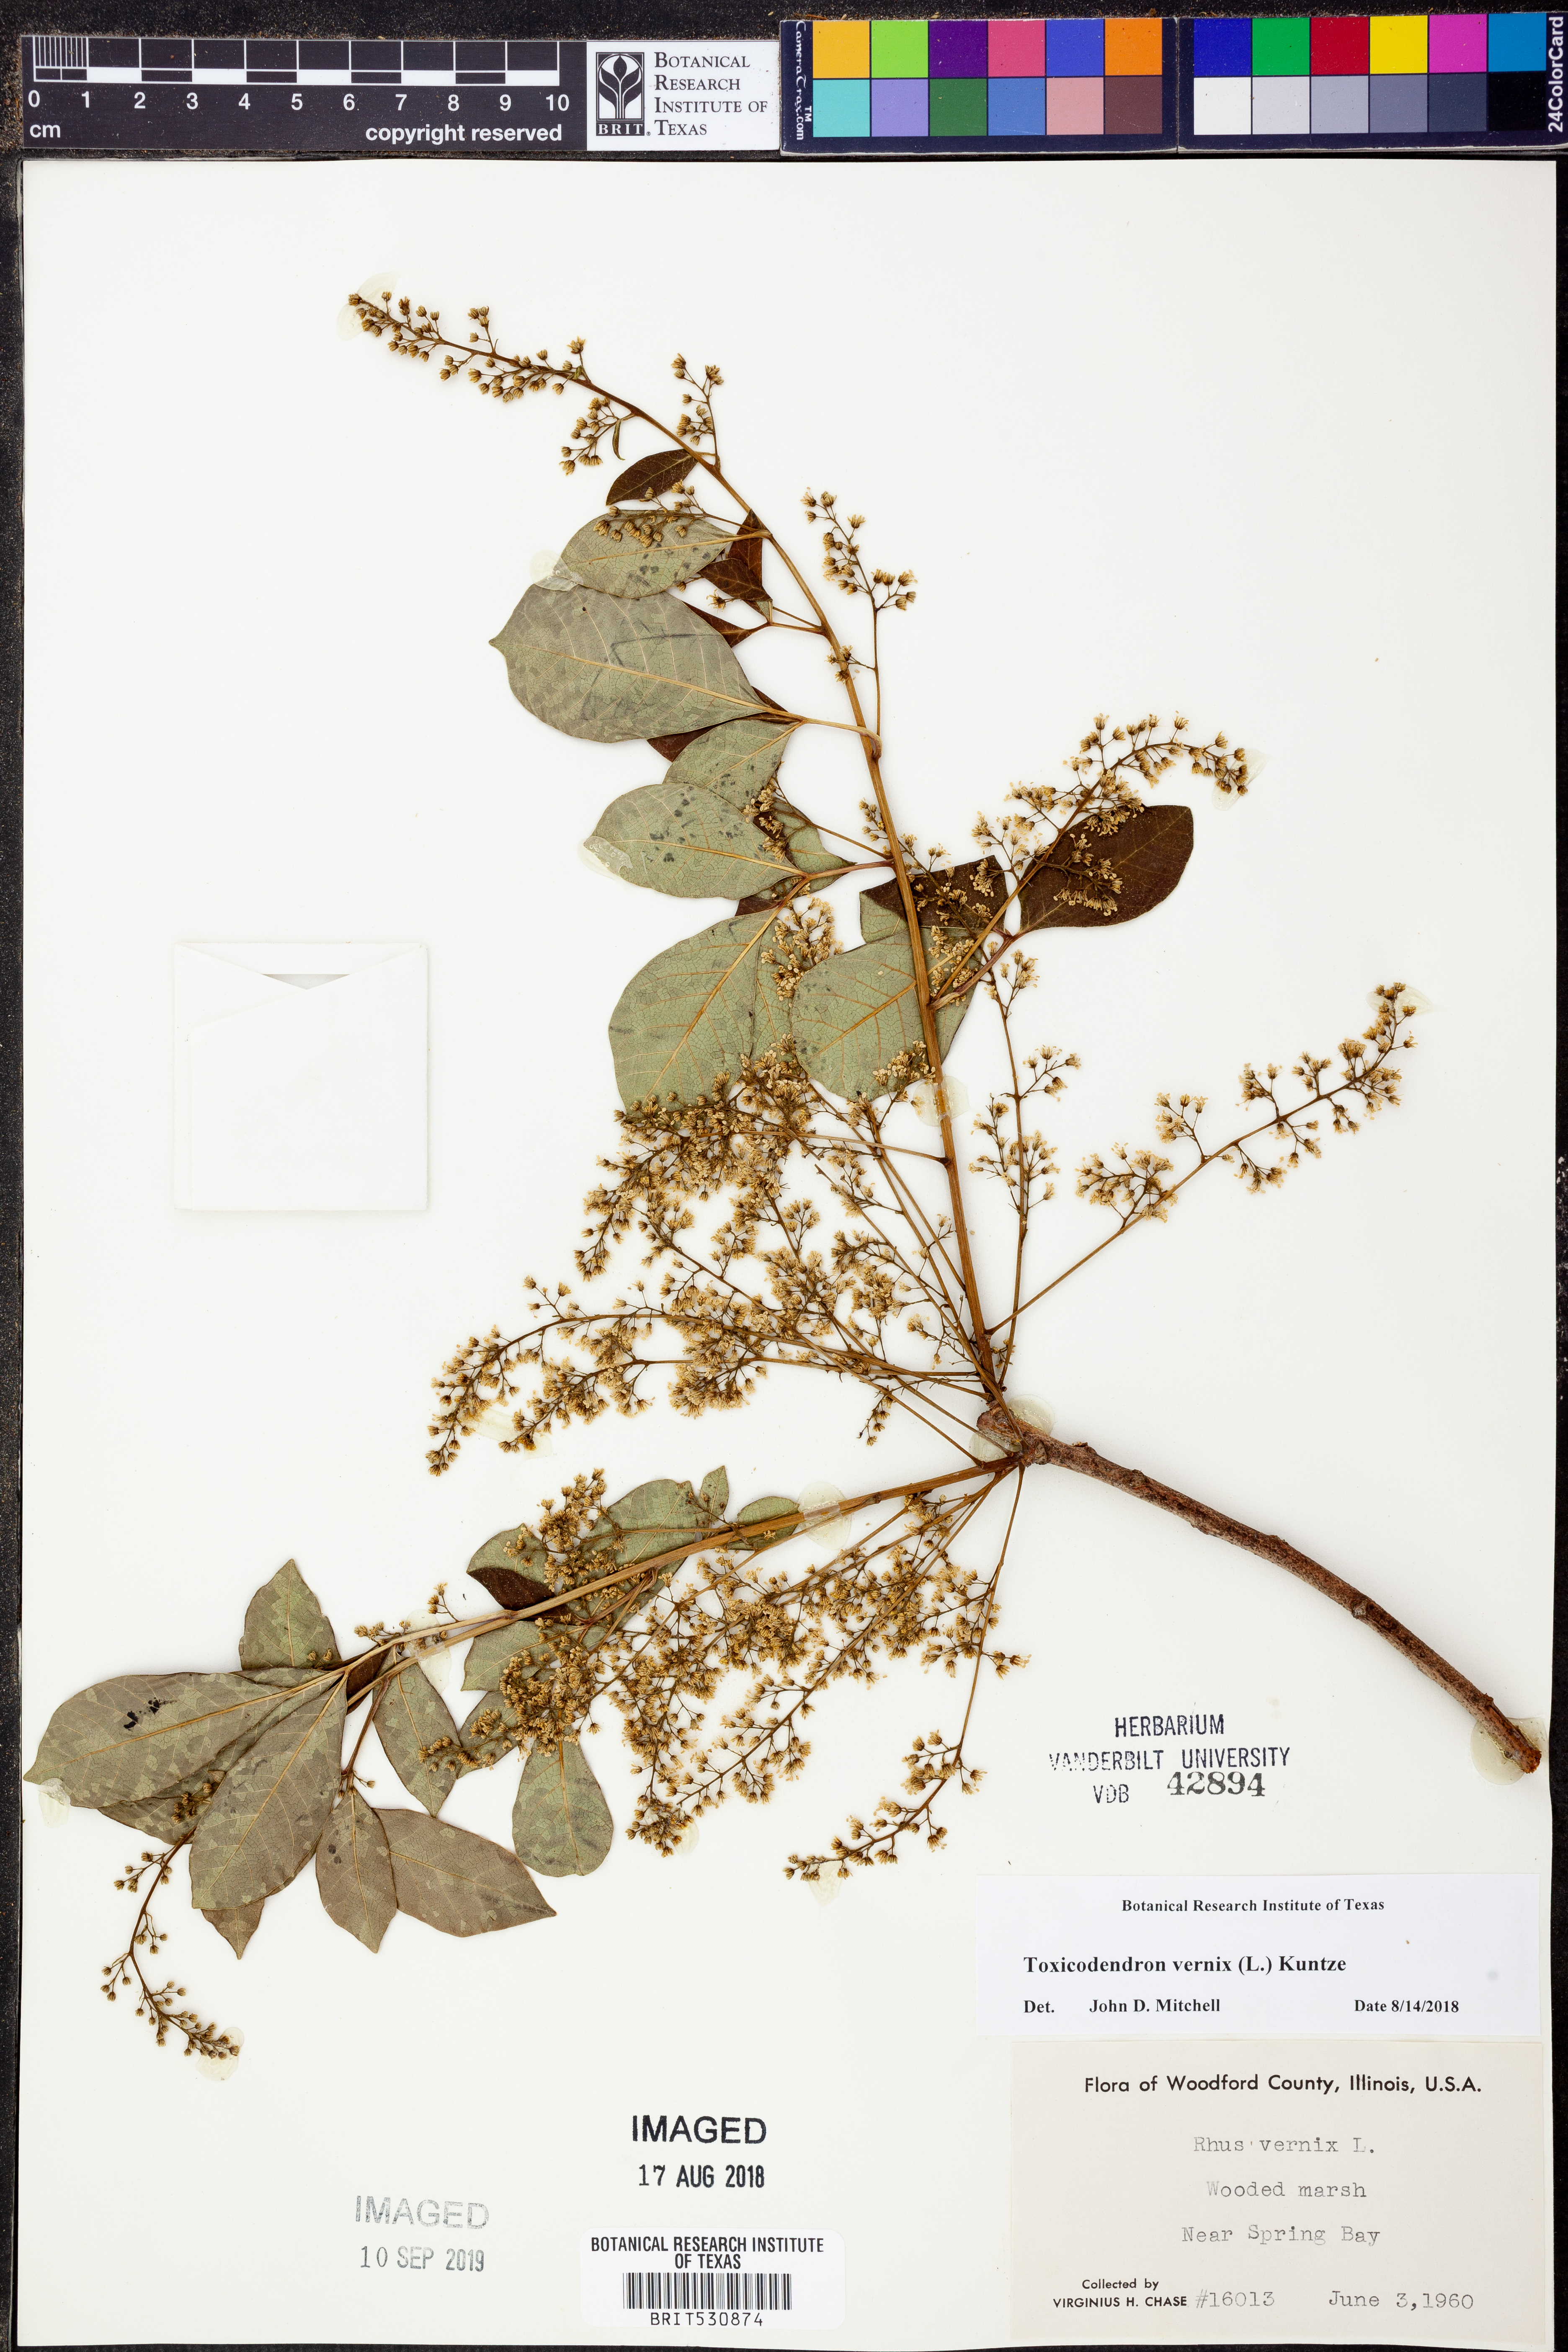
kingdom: Plantae
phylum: Tracheophyta
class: Magnoliopsida
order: Sapindales
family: Anacardiaceae
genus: Toxicodendron
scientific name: Toxicodendron vernix
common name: Poison sumac
